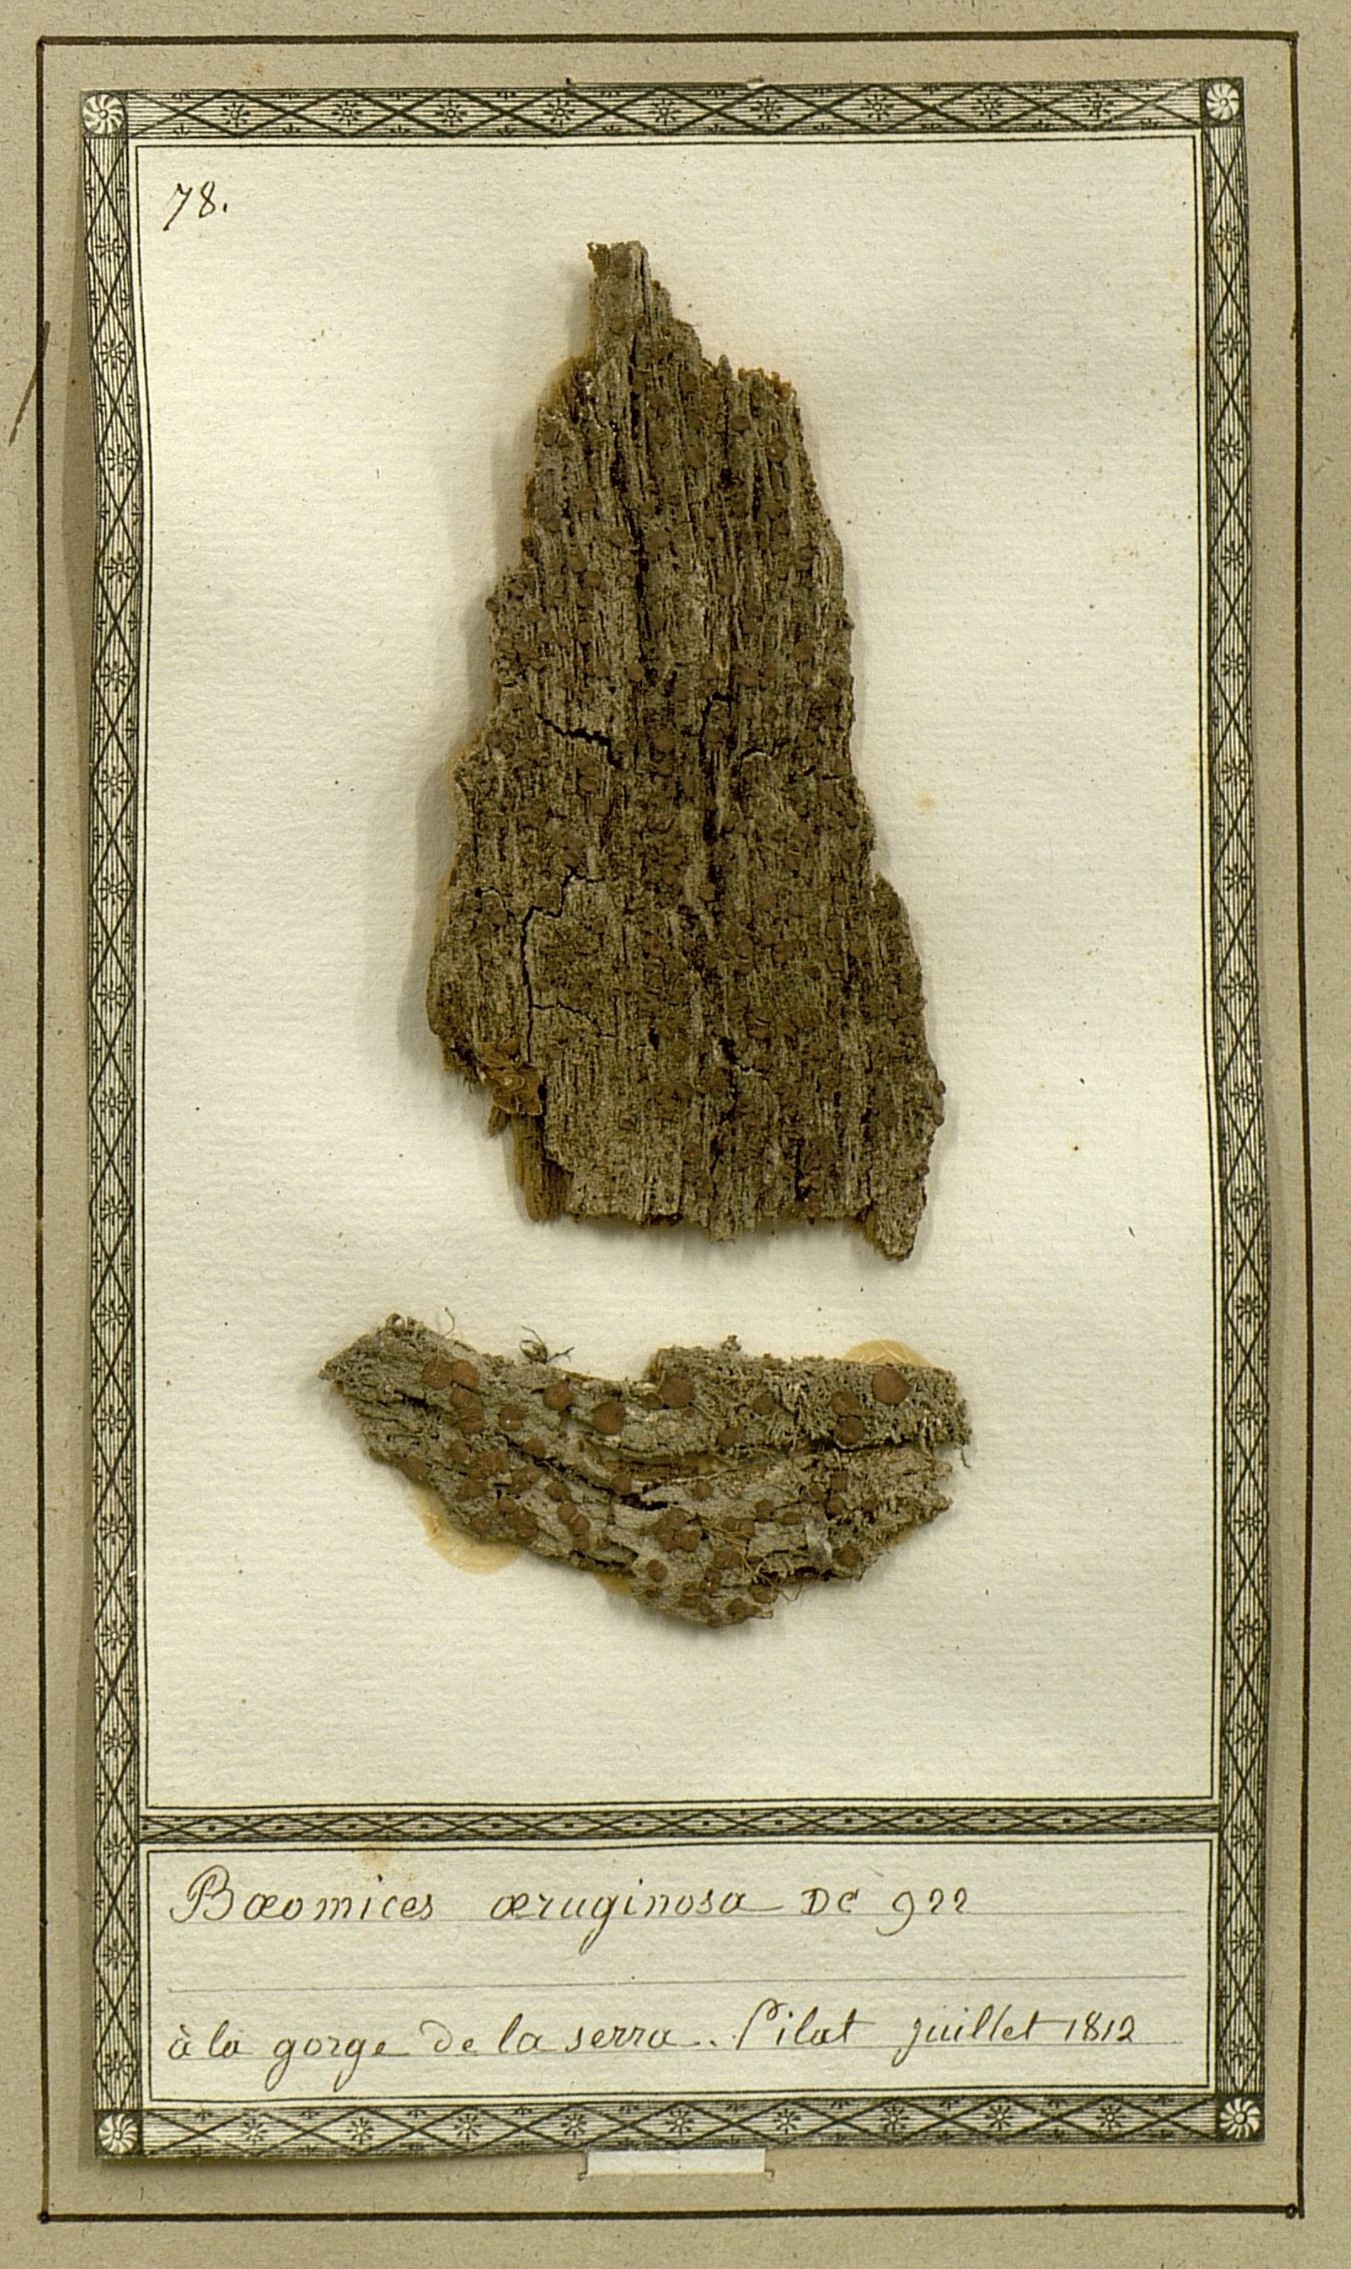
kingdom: Fungi
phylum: Ascomycota
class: Lecanoromycetes
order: Lecideales
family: Lecideaceae
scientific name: Lecideaceae
